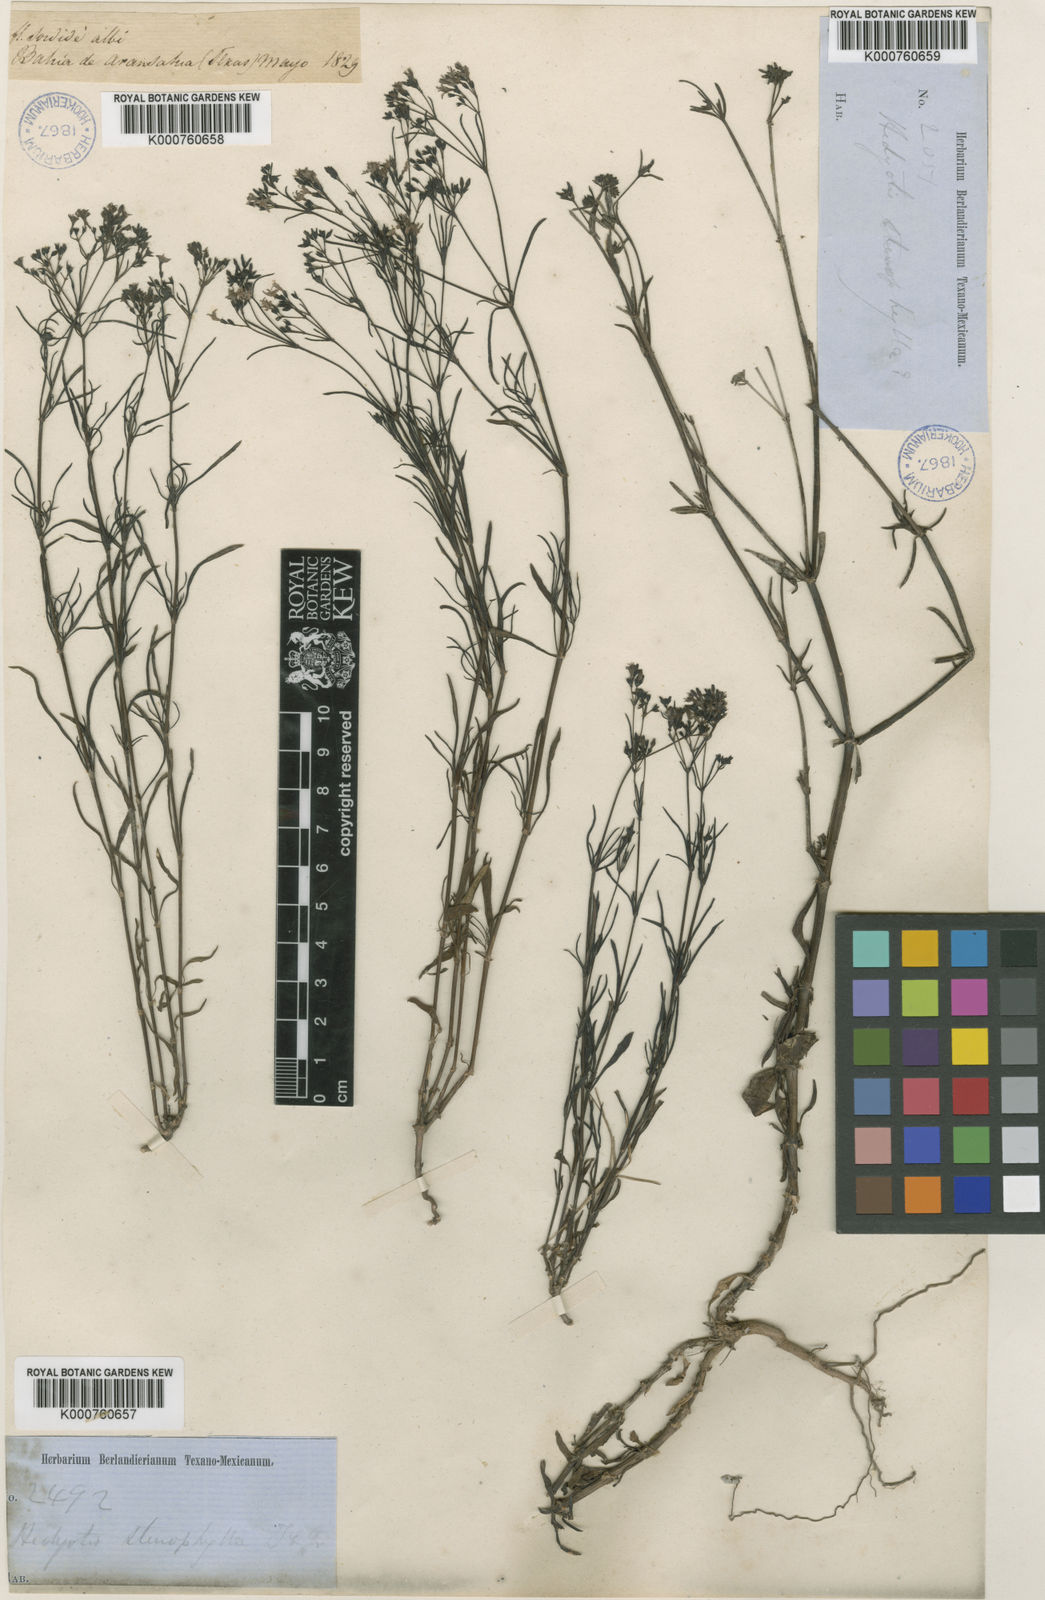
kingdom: Plantae
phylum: Tracheophyta
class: Magnoliopsida
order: Gentianales
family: Rubiaceae
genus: Stenaria
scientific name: Stenaria nigricans
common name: Diamondflowers
